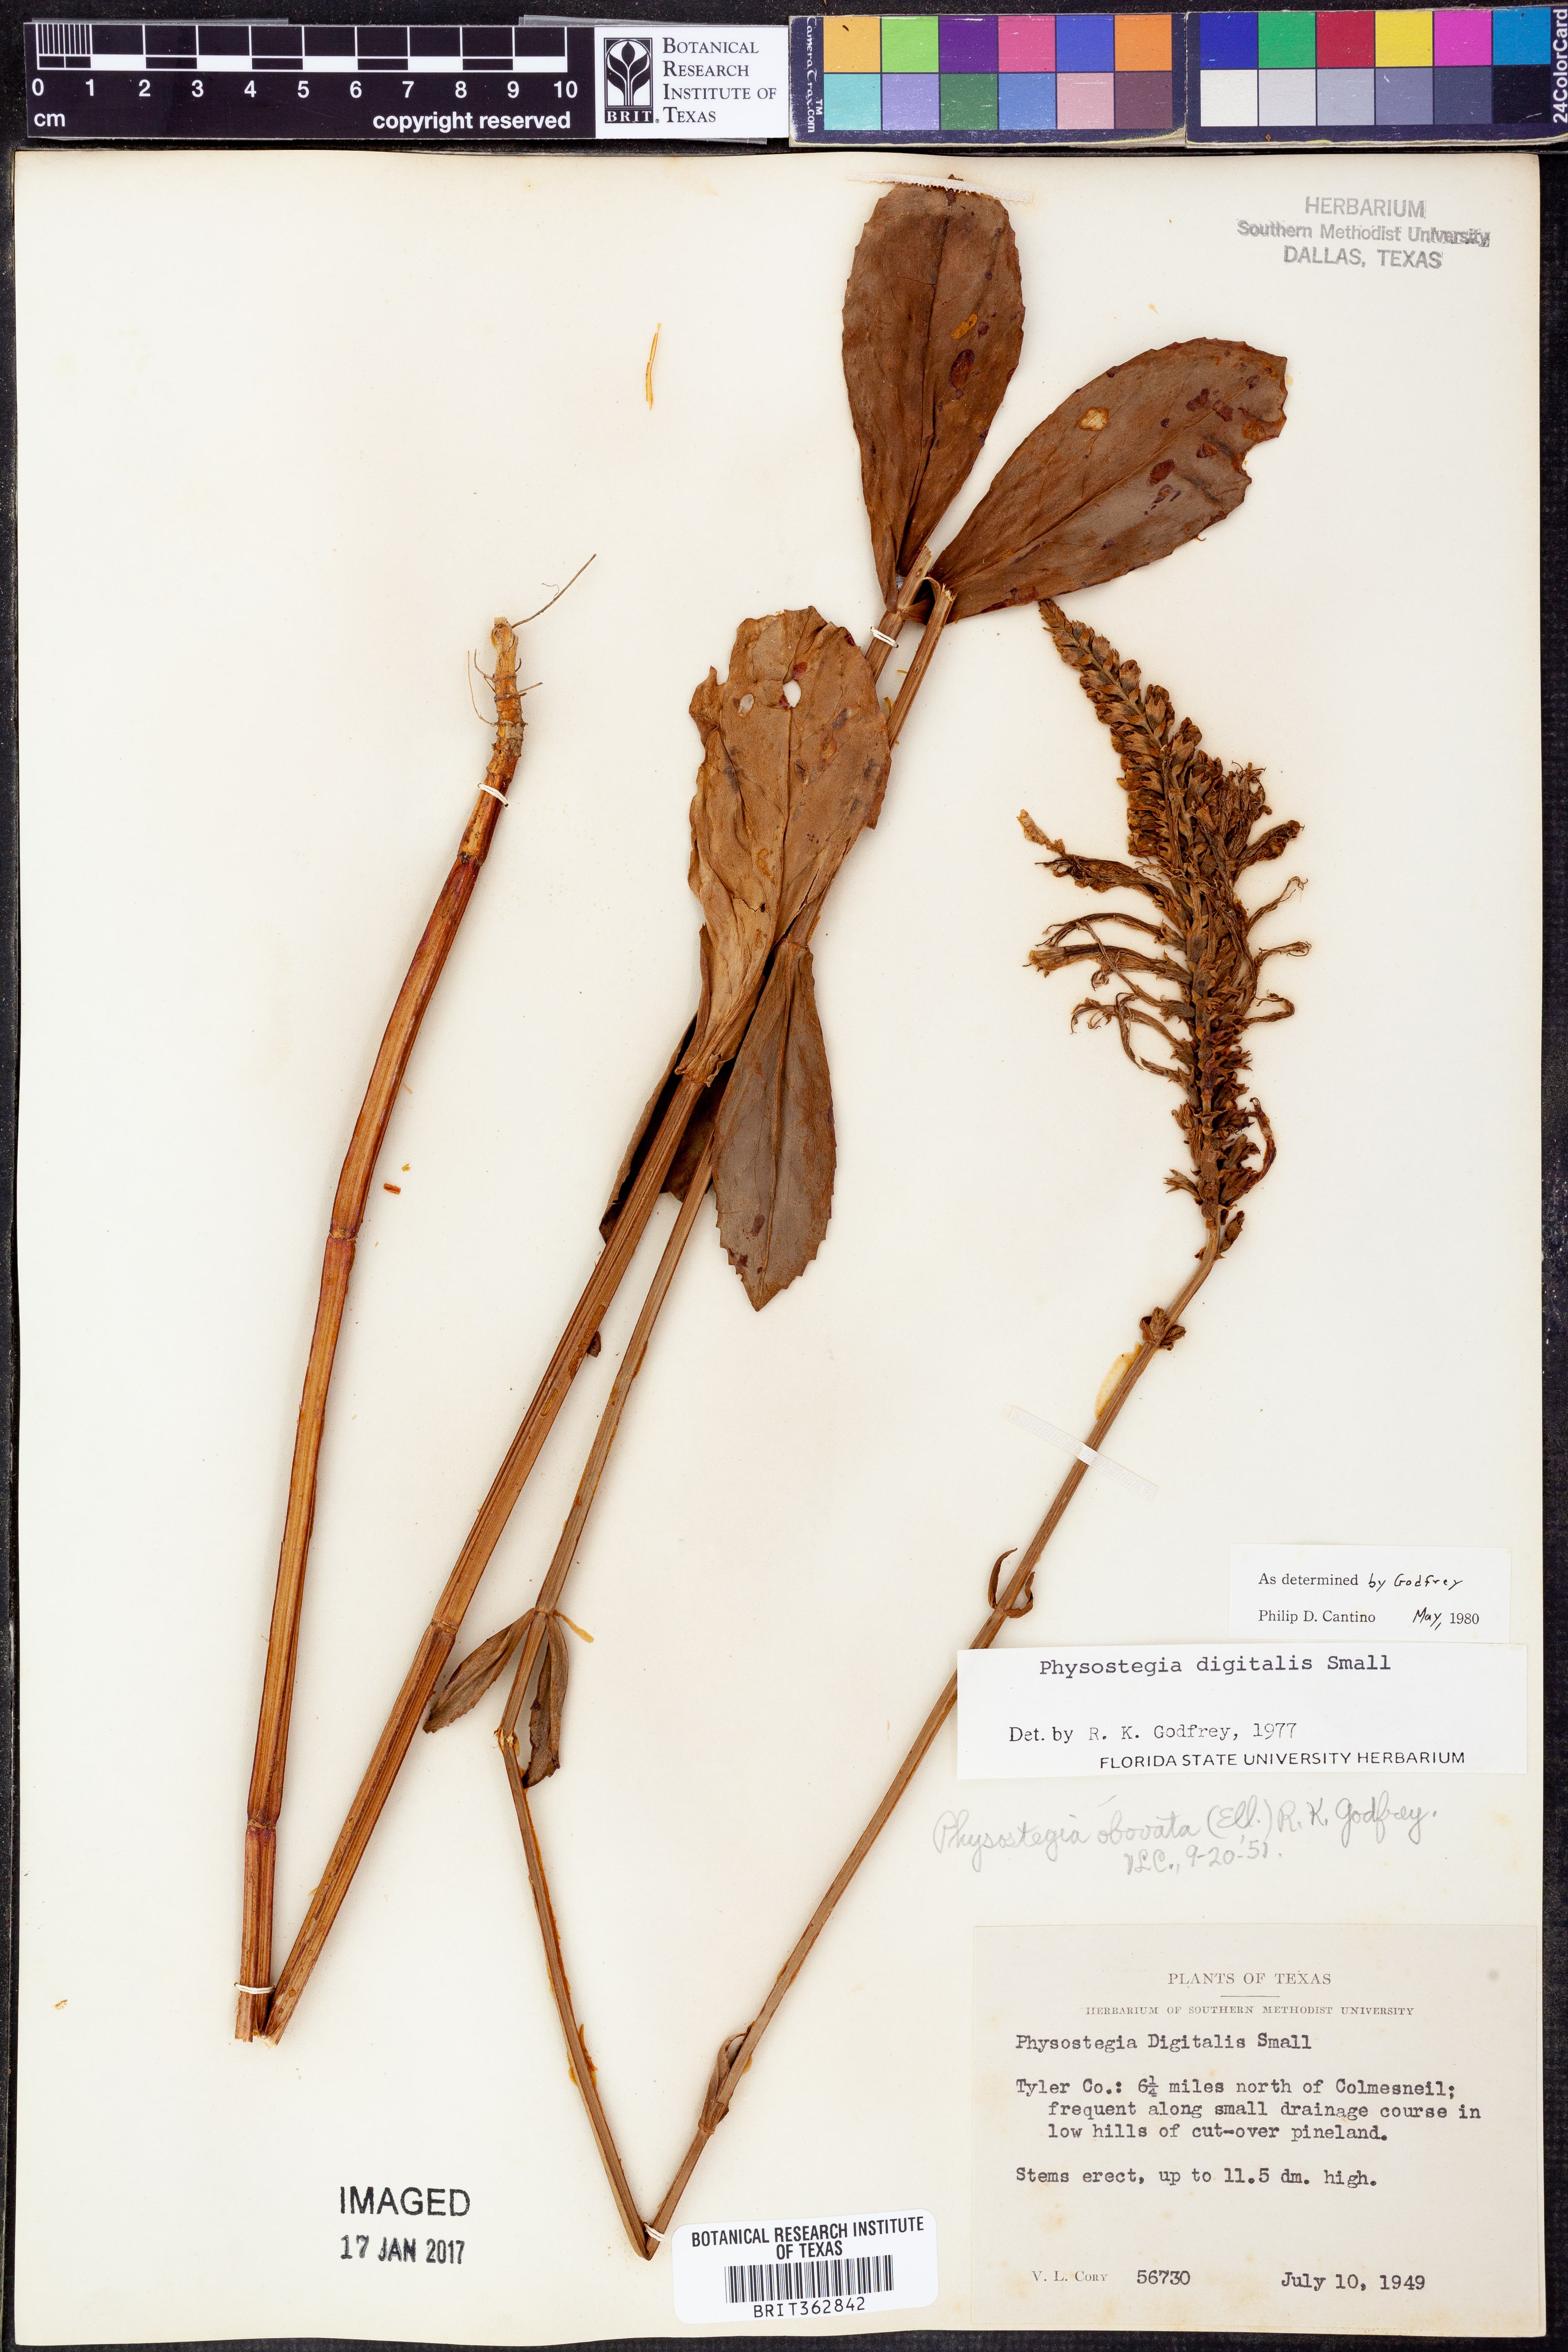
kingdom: Plantae
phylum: Tracheophyta
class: Magnoliopsida
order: Lamiales
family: Lamiaceae
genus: Physostegia
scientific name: Physostegia digitalis
